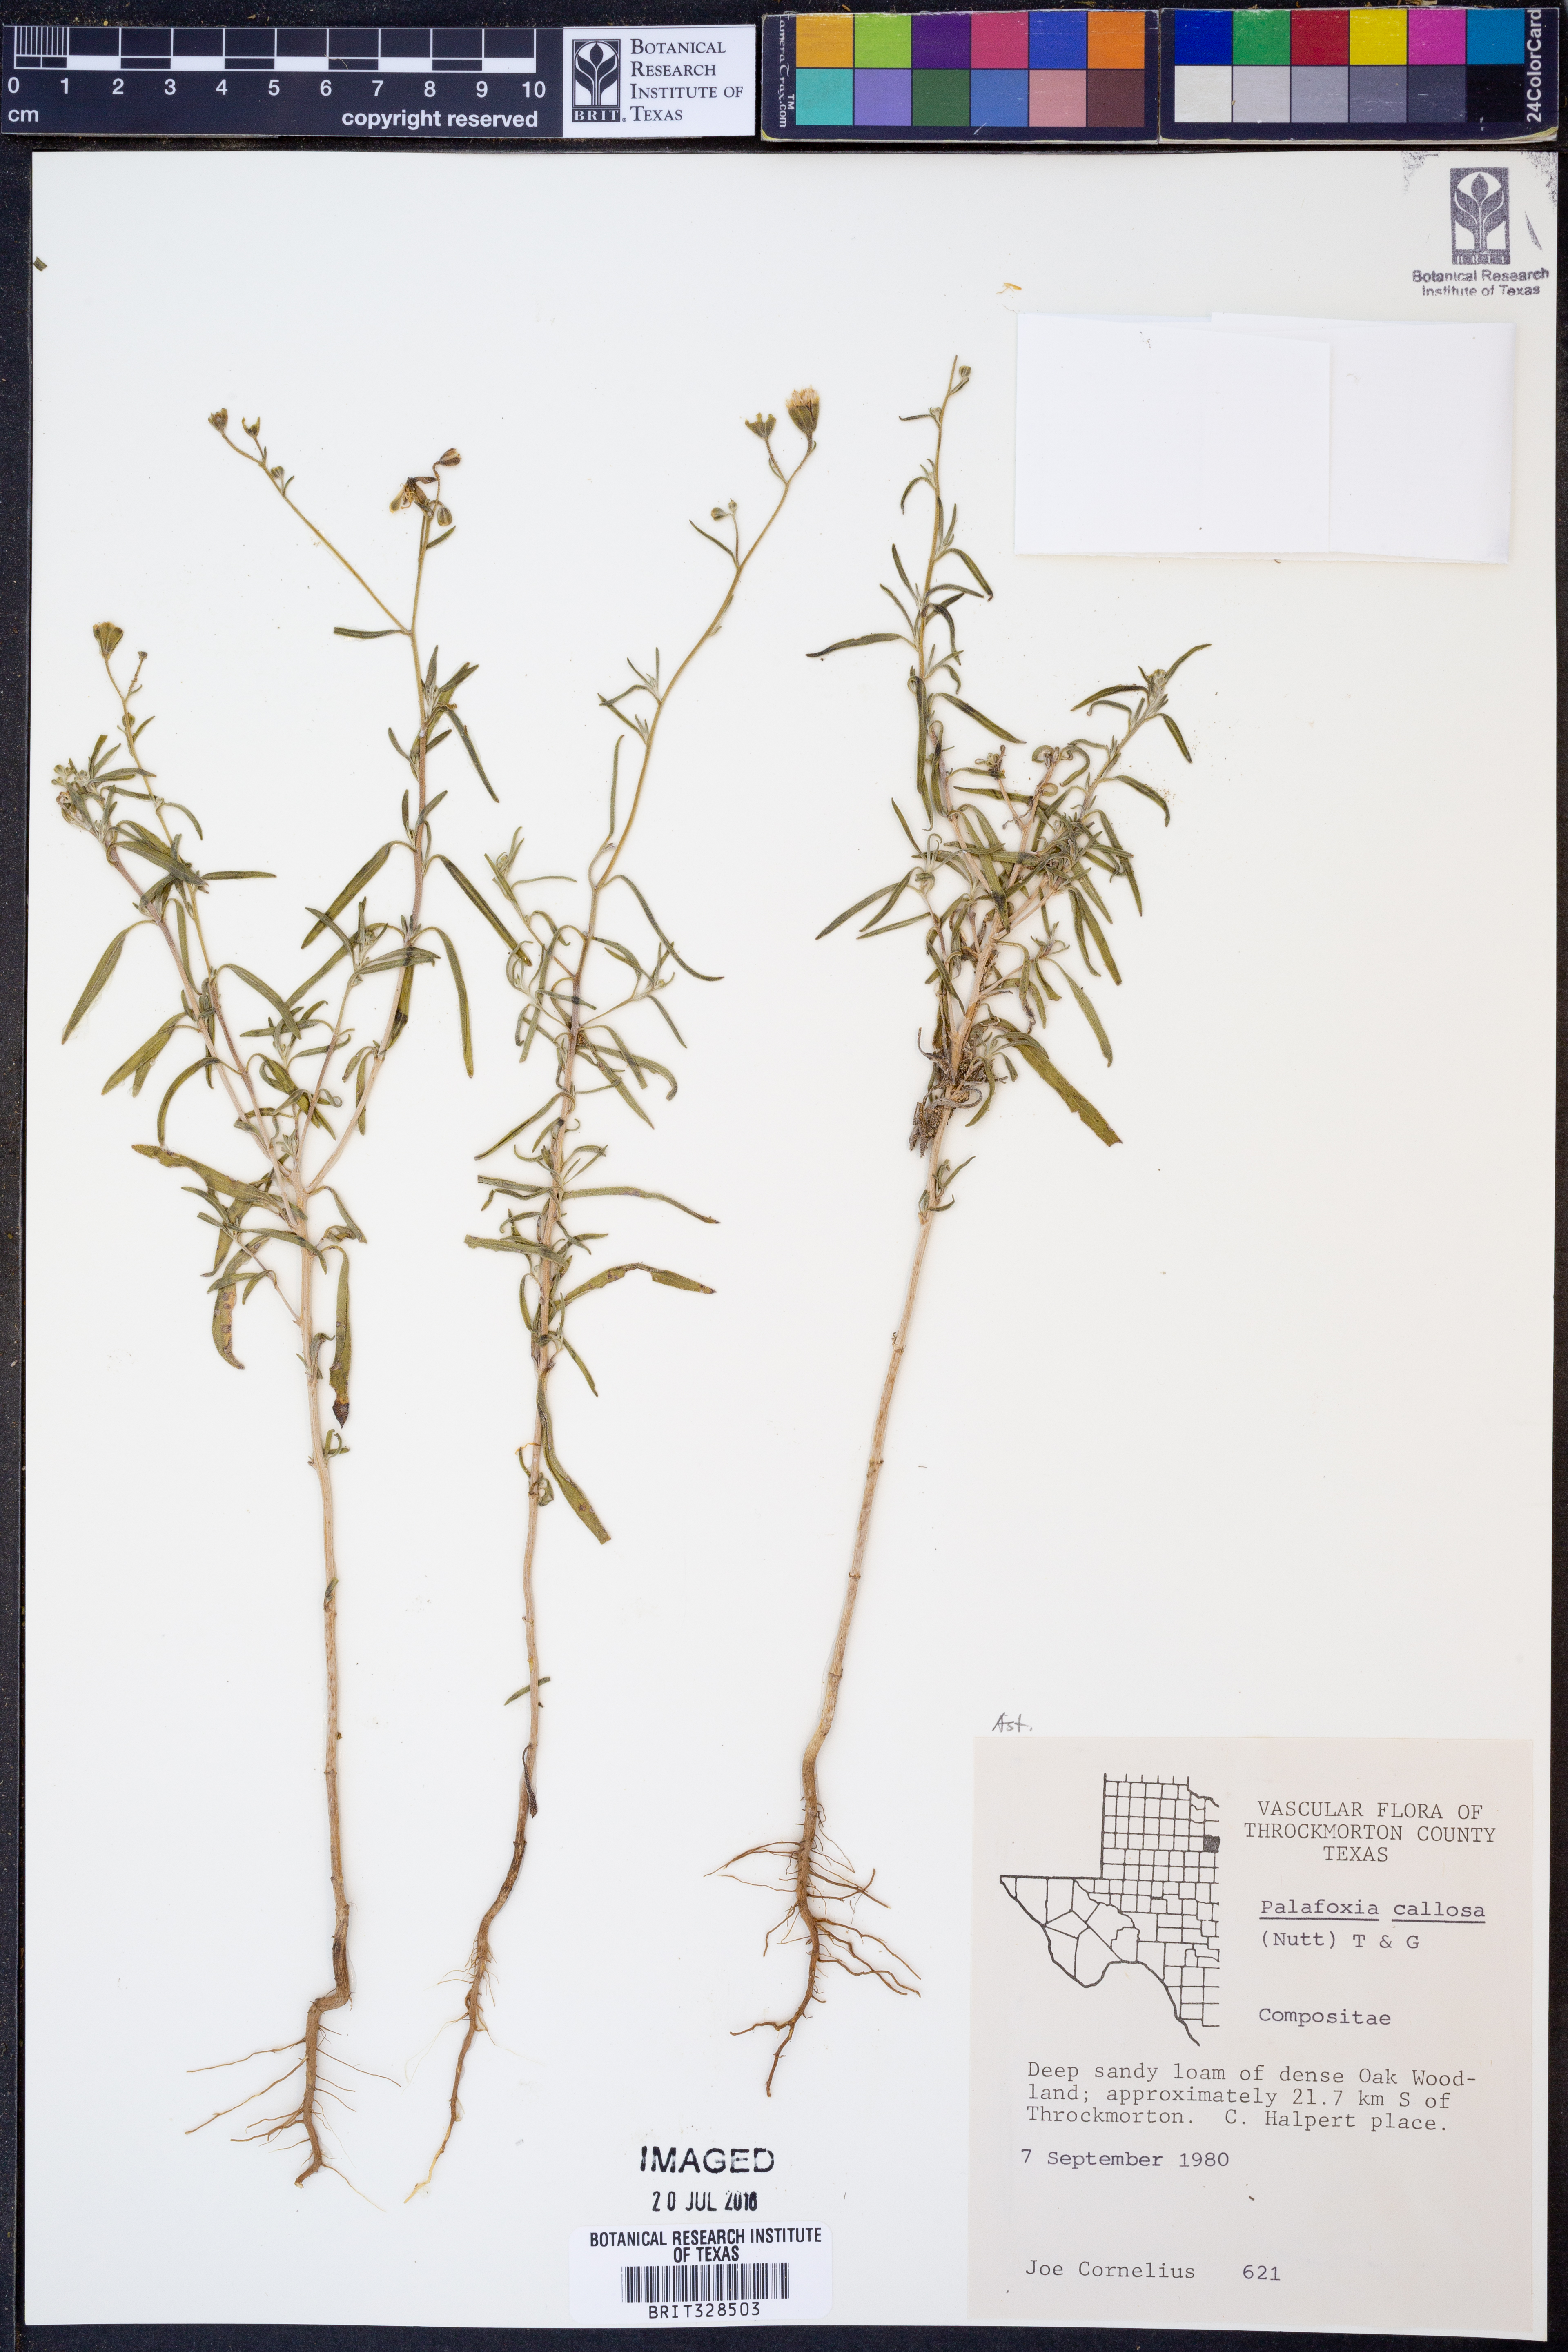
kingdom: Plantae
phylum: Tracheophyta
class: Magnoliopsida
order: Asterales
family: Asteraceae
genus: Palafoxia
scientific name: Palafoxia callosa
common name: Small palafox
